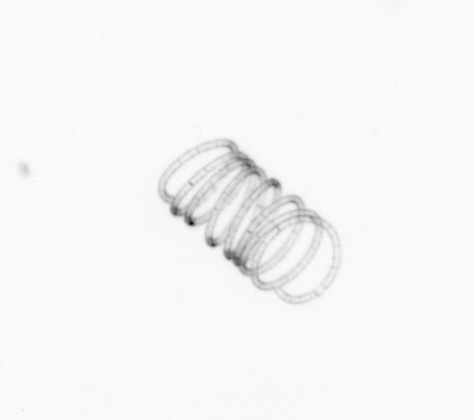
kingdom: Chromista
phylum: Ochrophyta
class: Bacillariophyceae
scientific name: Bacillariophyceae
